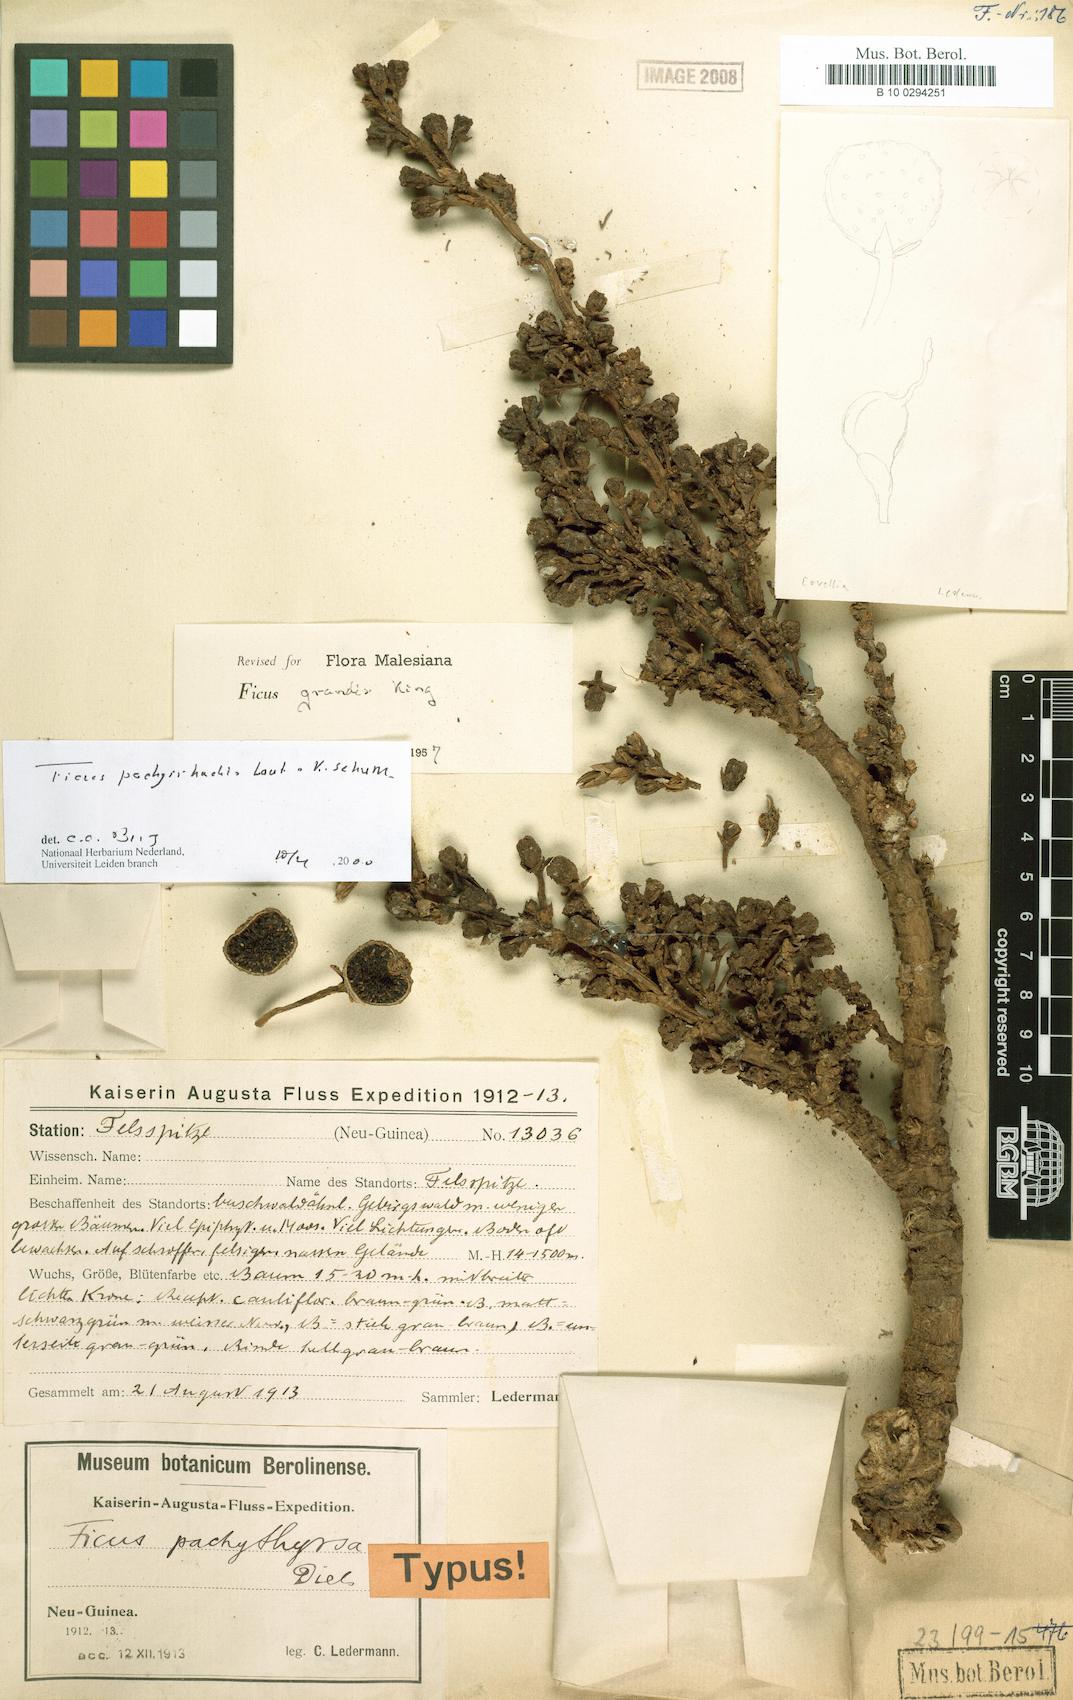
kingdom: Plantae
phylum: Tracheophyta
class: Magnoliopsida
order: Rosales
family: Moraceae
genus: Ficus
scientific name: Ficus pachyrrhachis
